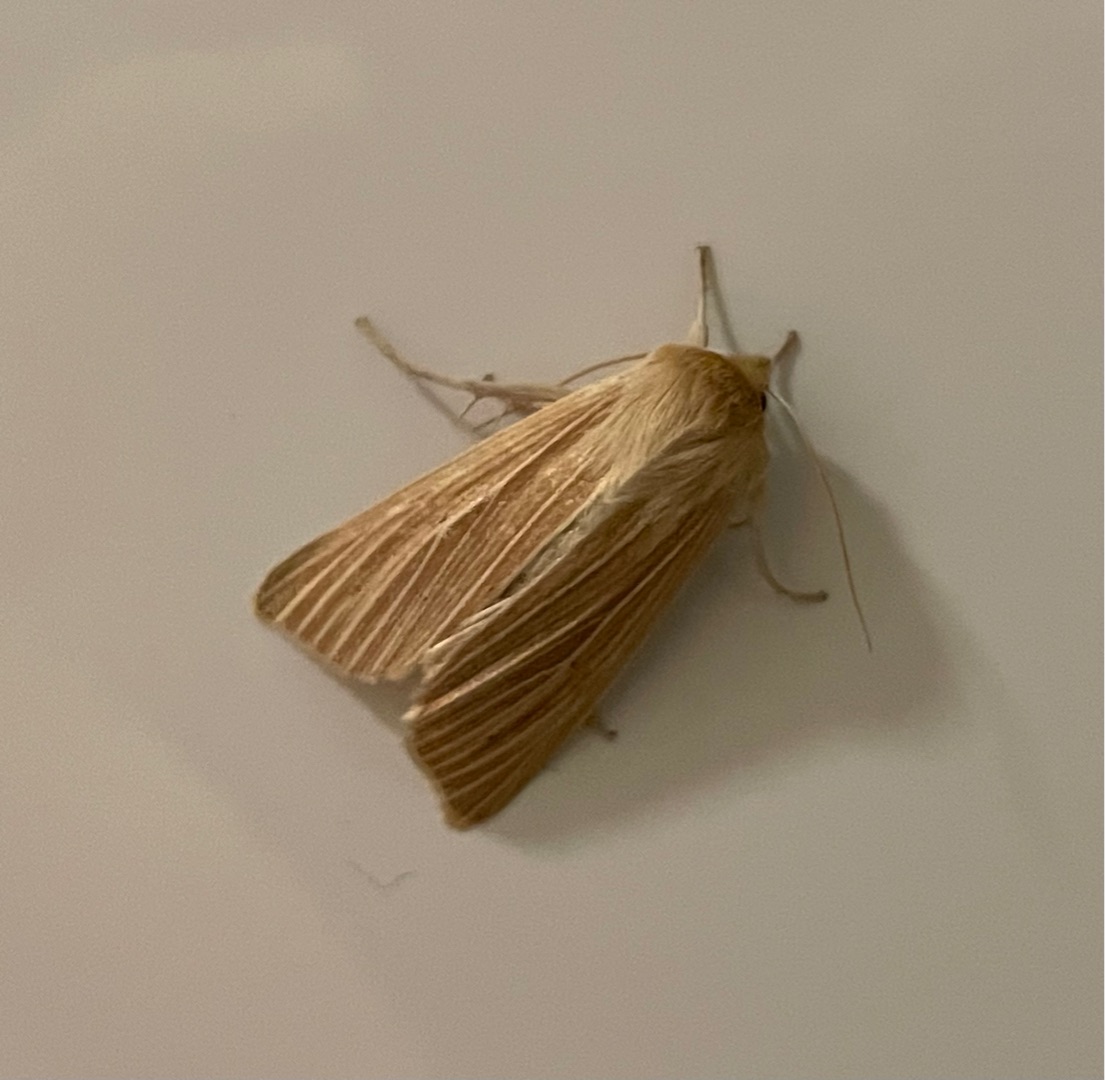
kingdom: Animalia
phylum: Arthropoda
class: Insecta
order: Lepidoptera
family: Noctuidae
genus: Mythimna
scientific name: Mythimna pallens
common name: Halmugle
